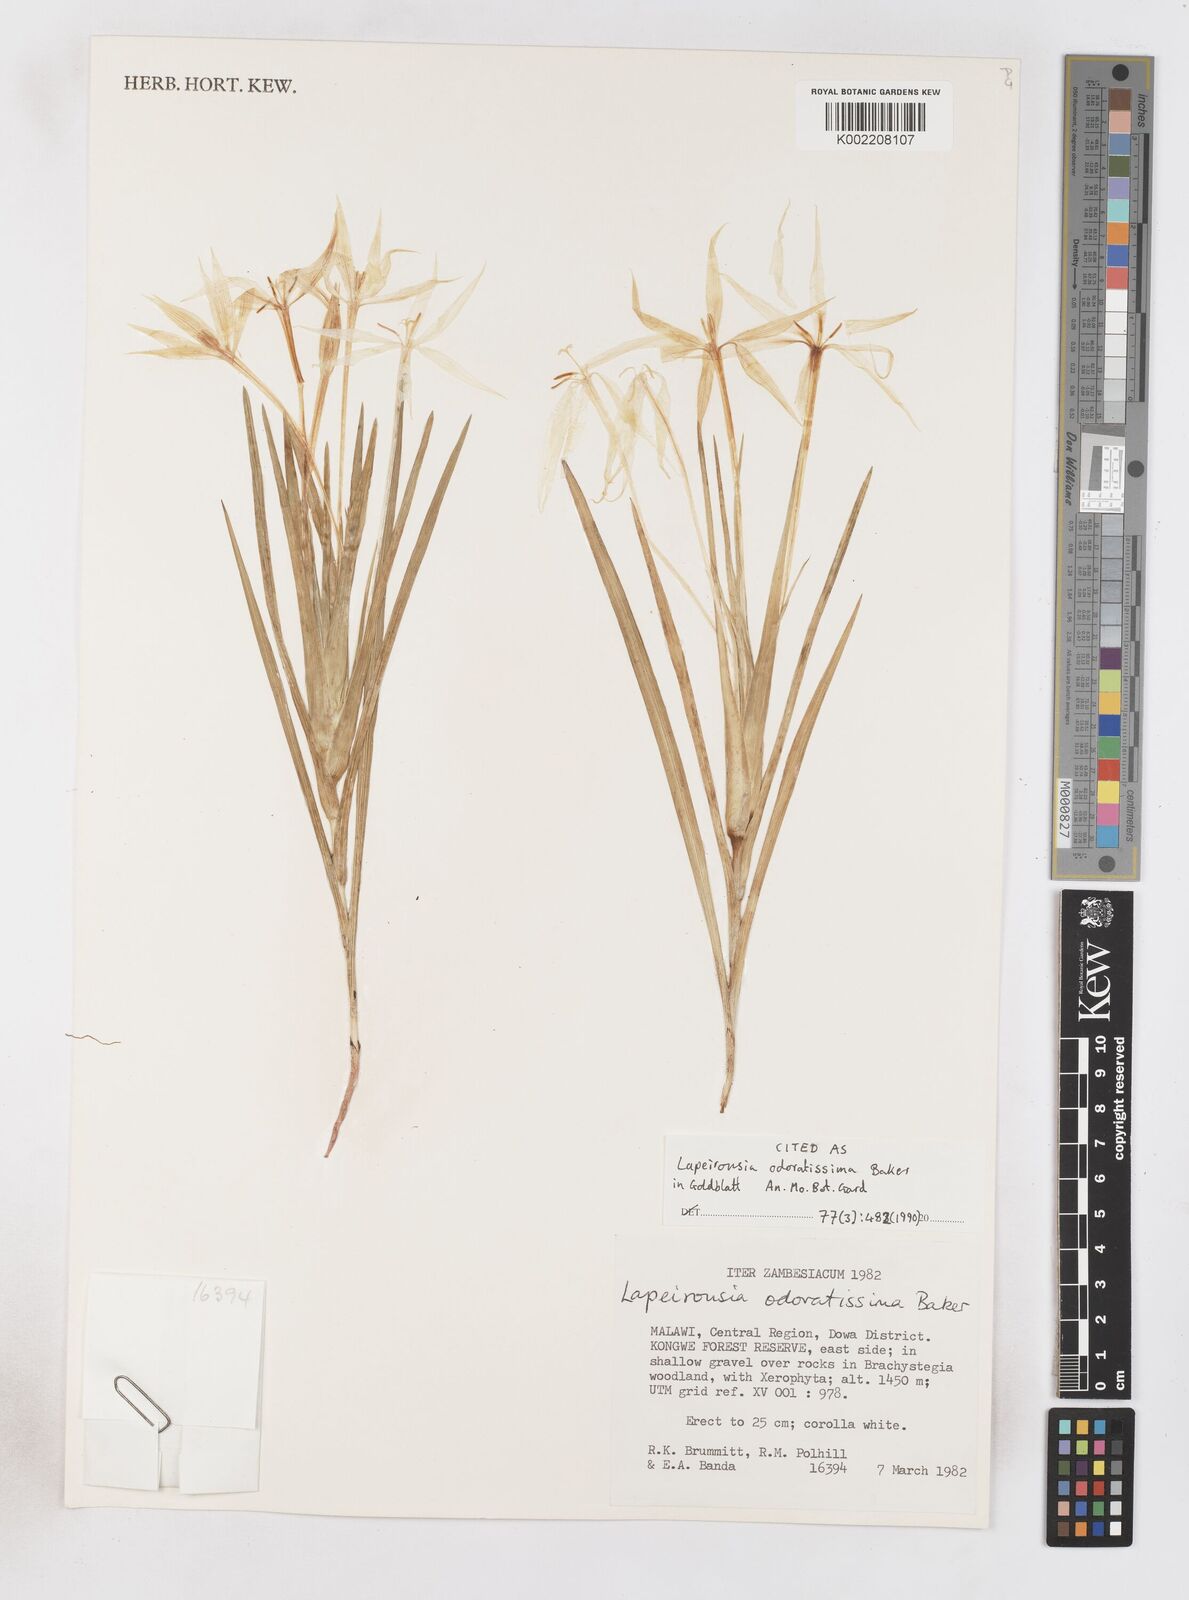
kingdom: Plantae
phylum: Tracheophyta
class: Liliopsida
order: Asparagales
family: Iridaceae
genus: Lapeirousia
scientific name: Lapeirousia odoratissima
